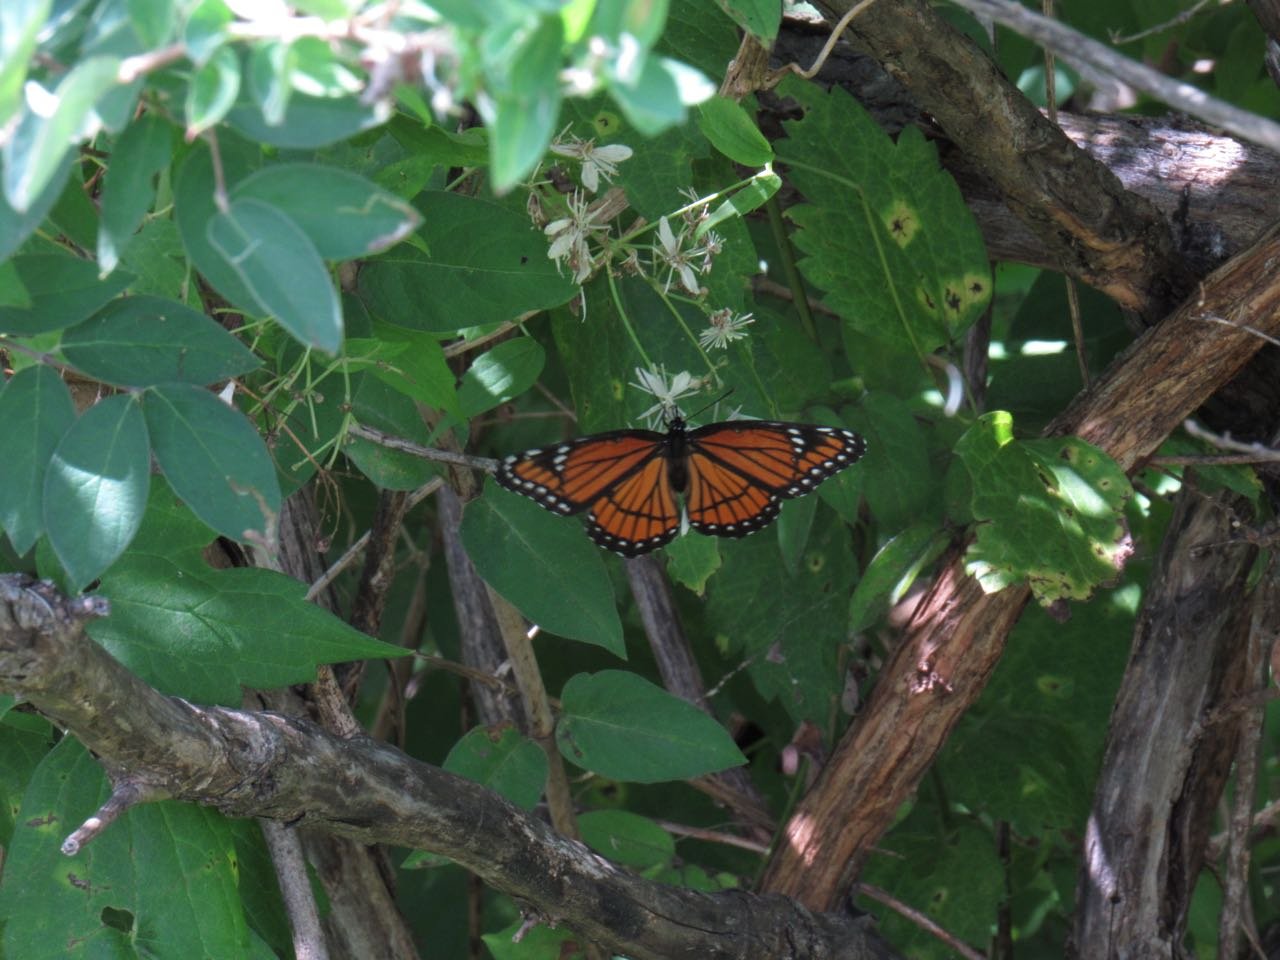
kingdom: Animalia
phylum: Arthropoda
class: Insecta
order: Lepidoptera
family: Nymphalidae
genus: Limenitis
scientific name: Limenitis archippus
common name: Viceroy
